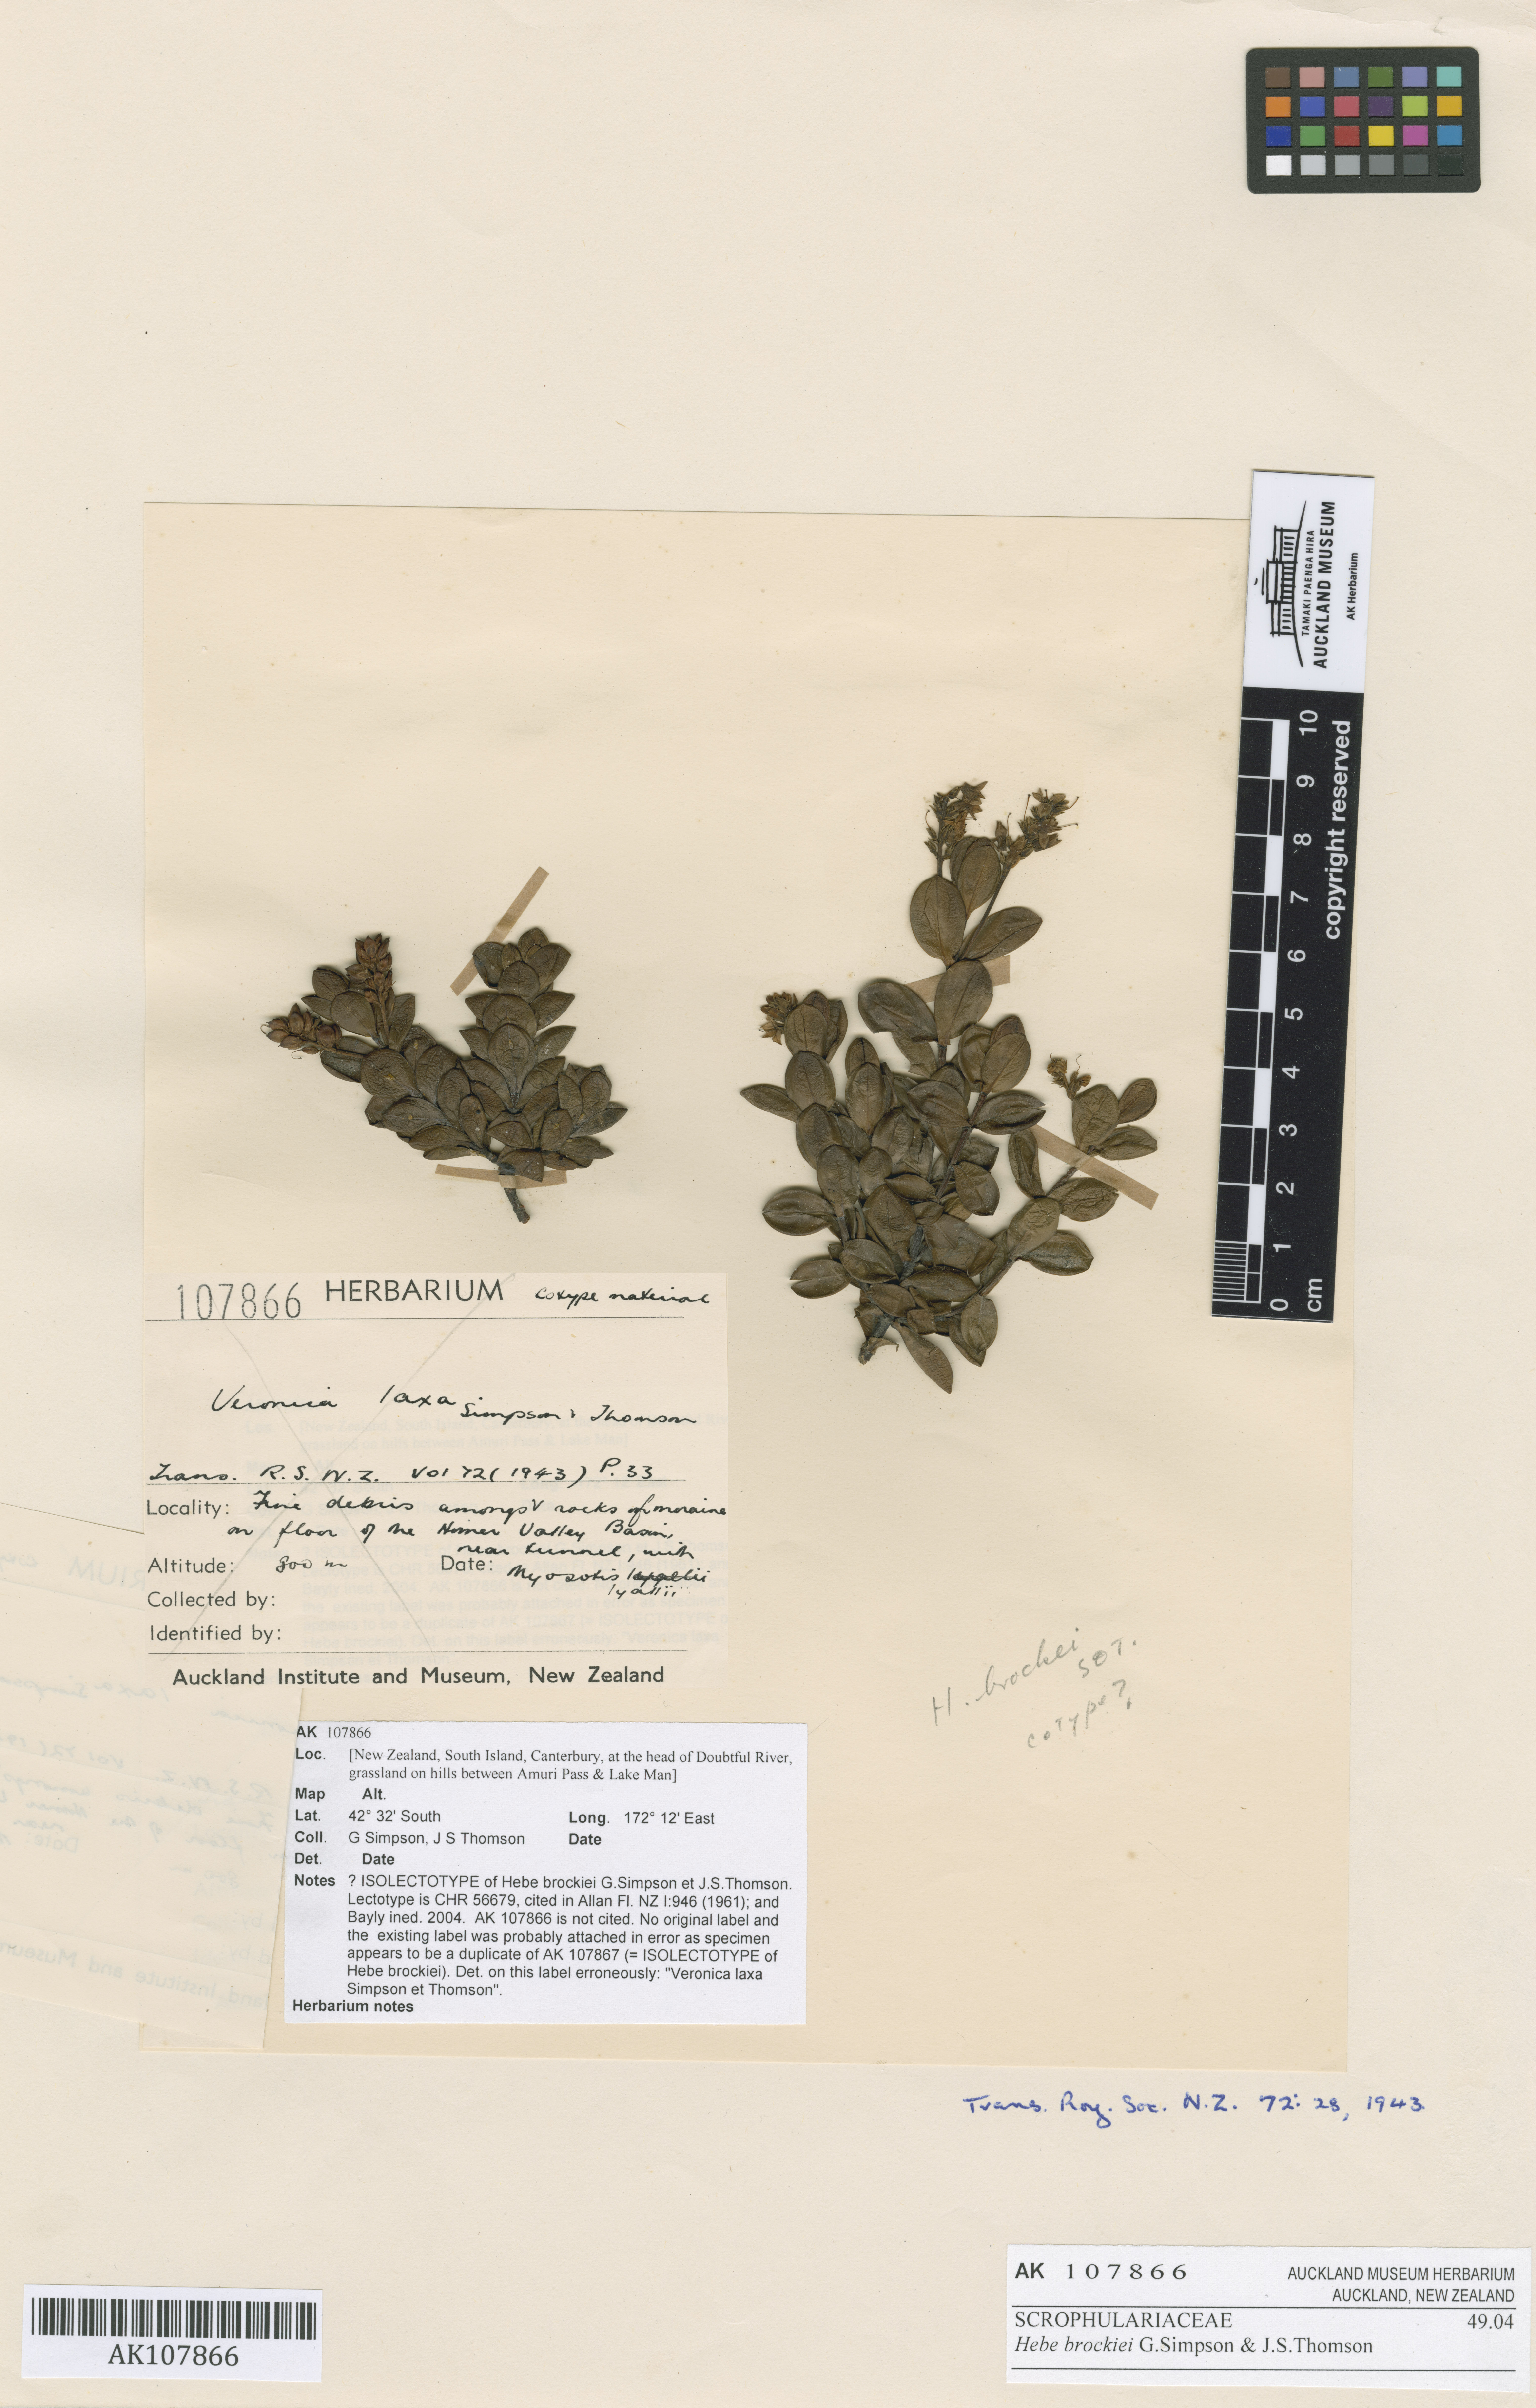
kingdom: Plantae
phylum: Tracheophyta
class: Magnoliopsida
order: Lamiales
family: Plantaginaceae
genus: Veronica
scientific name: Veronica treadwellii
